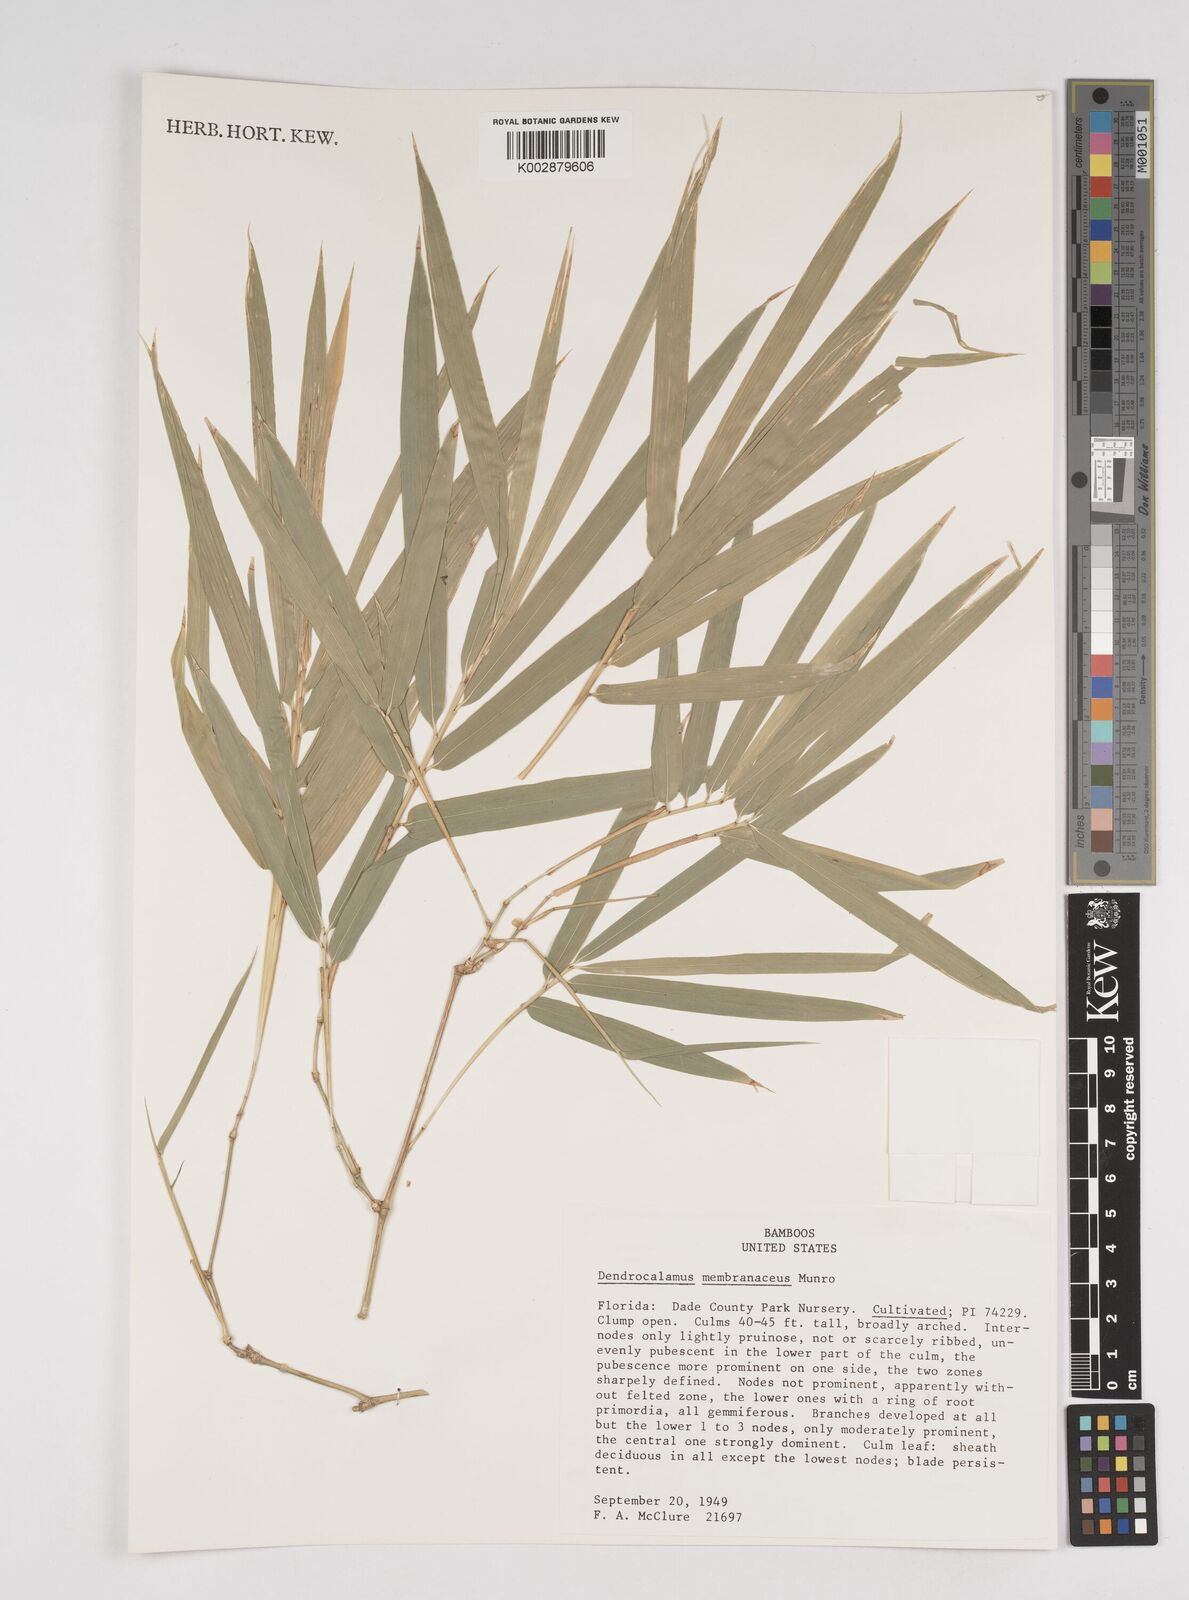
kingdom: Plantae
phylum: Tracheophyta
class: Liliopsida
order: Poales
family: Poaceae
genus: Dendrocalamus
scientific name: Dendrocalamus membranaceus
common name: White bamboo
